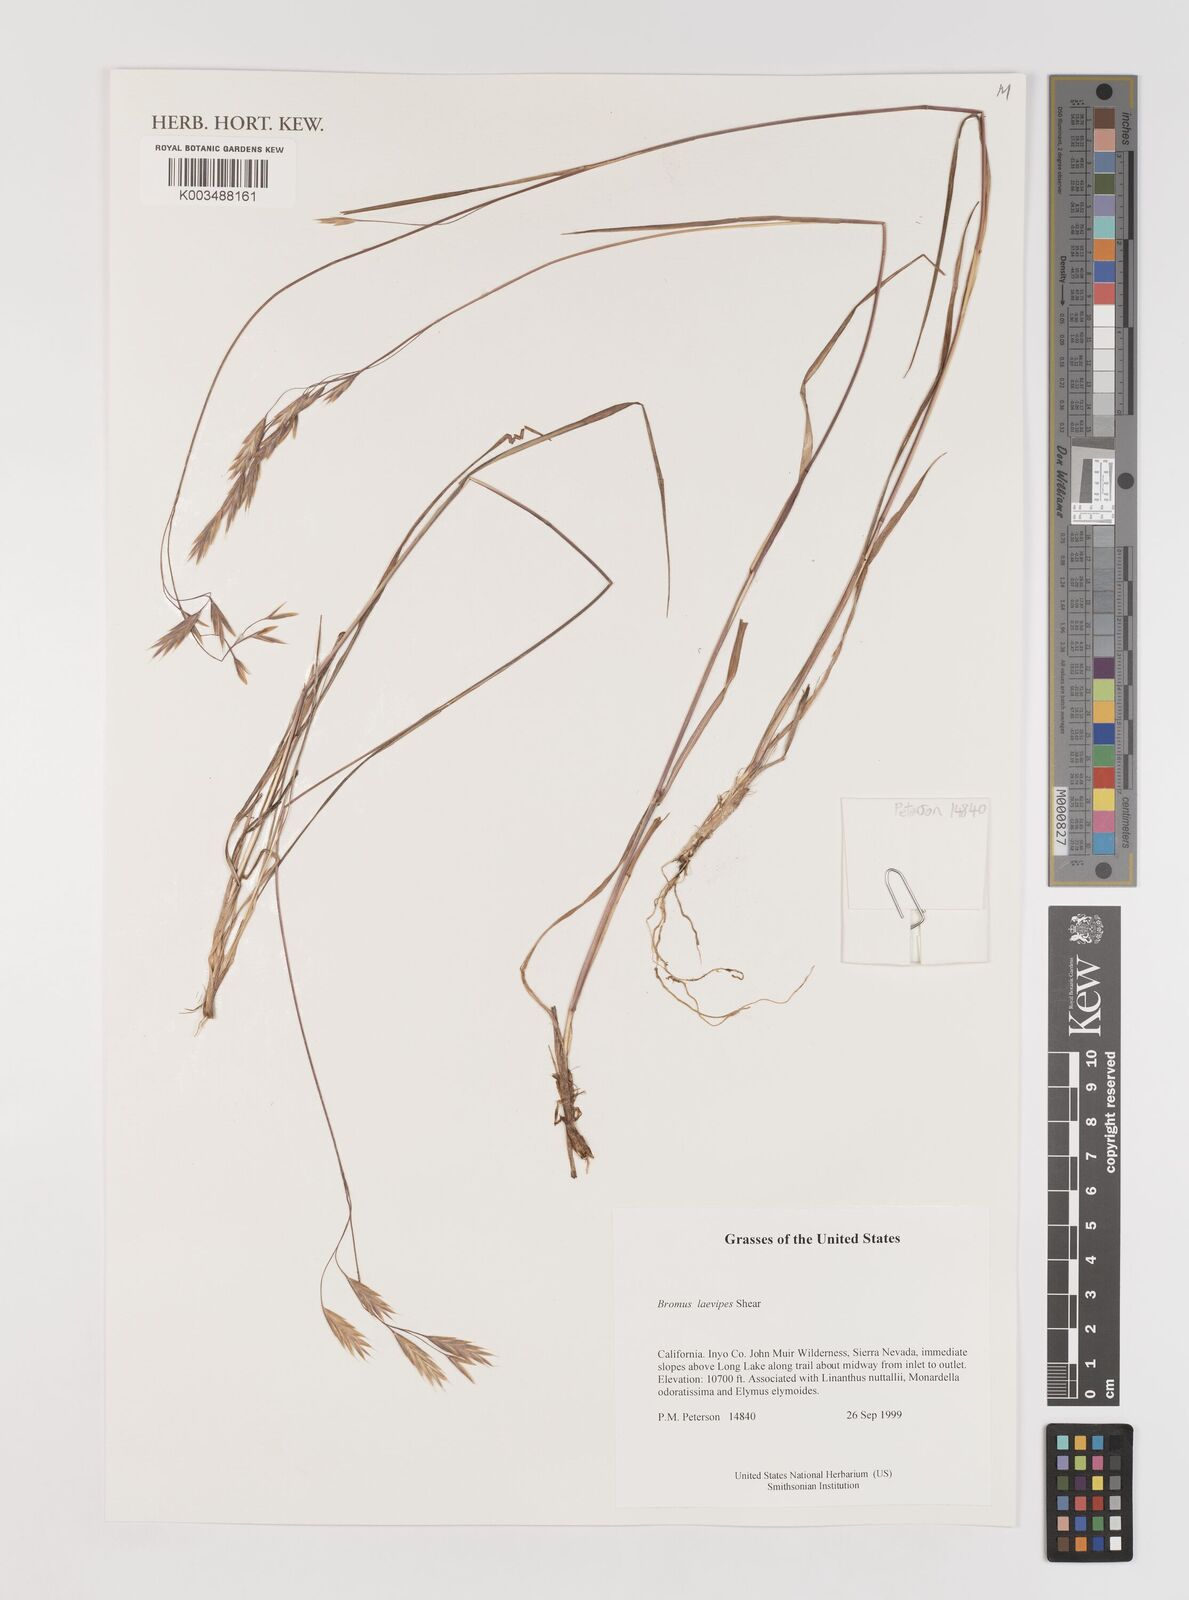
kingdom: Plantae
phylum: Tracheophyta
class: Liliopsida
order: Poales
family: Poaceae
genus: Bromus
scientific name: Bromus laevipes
